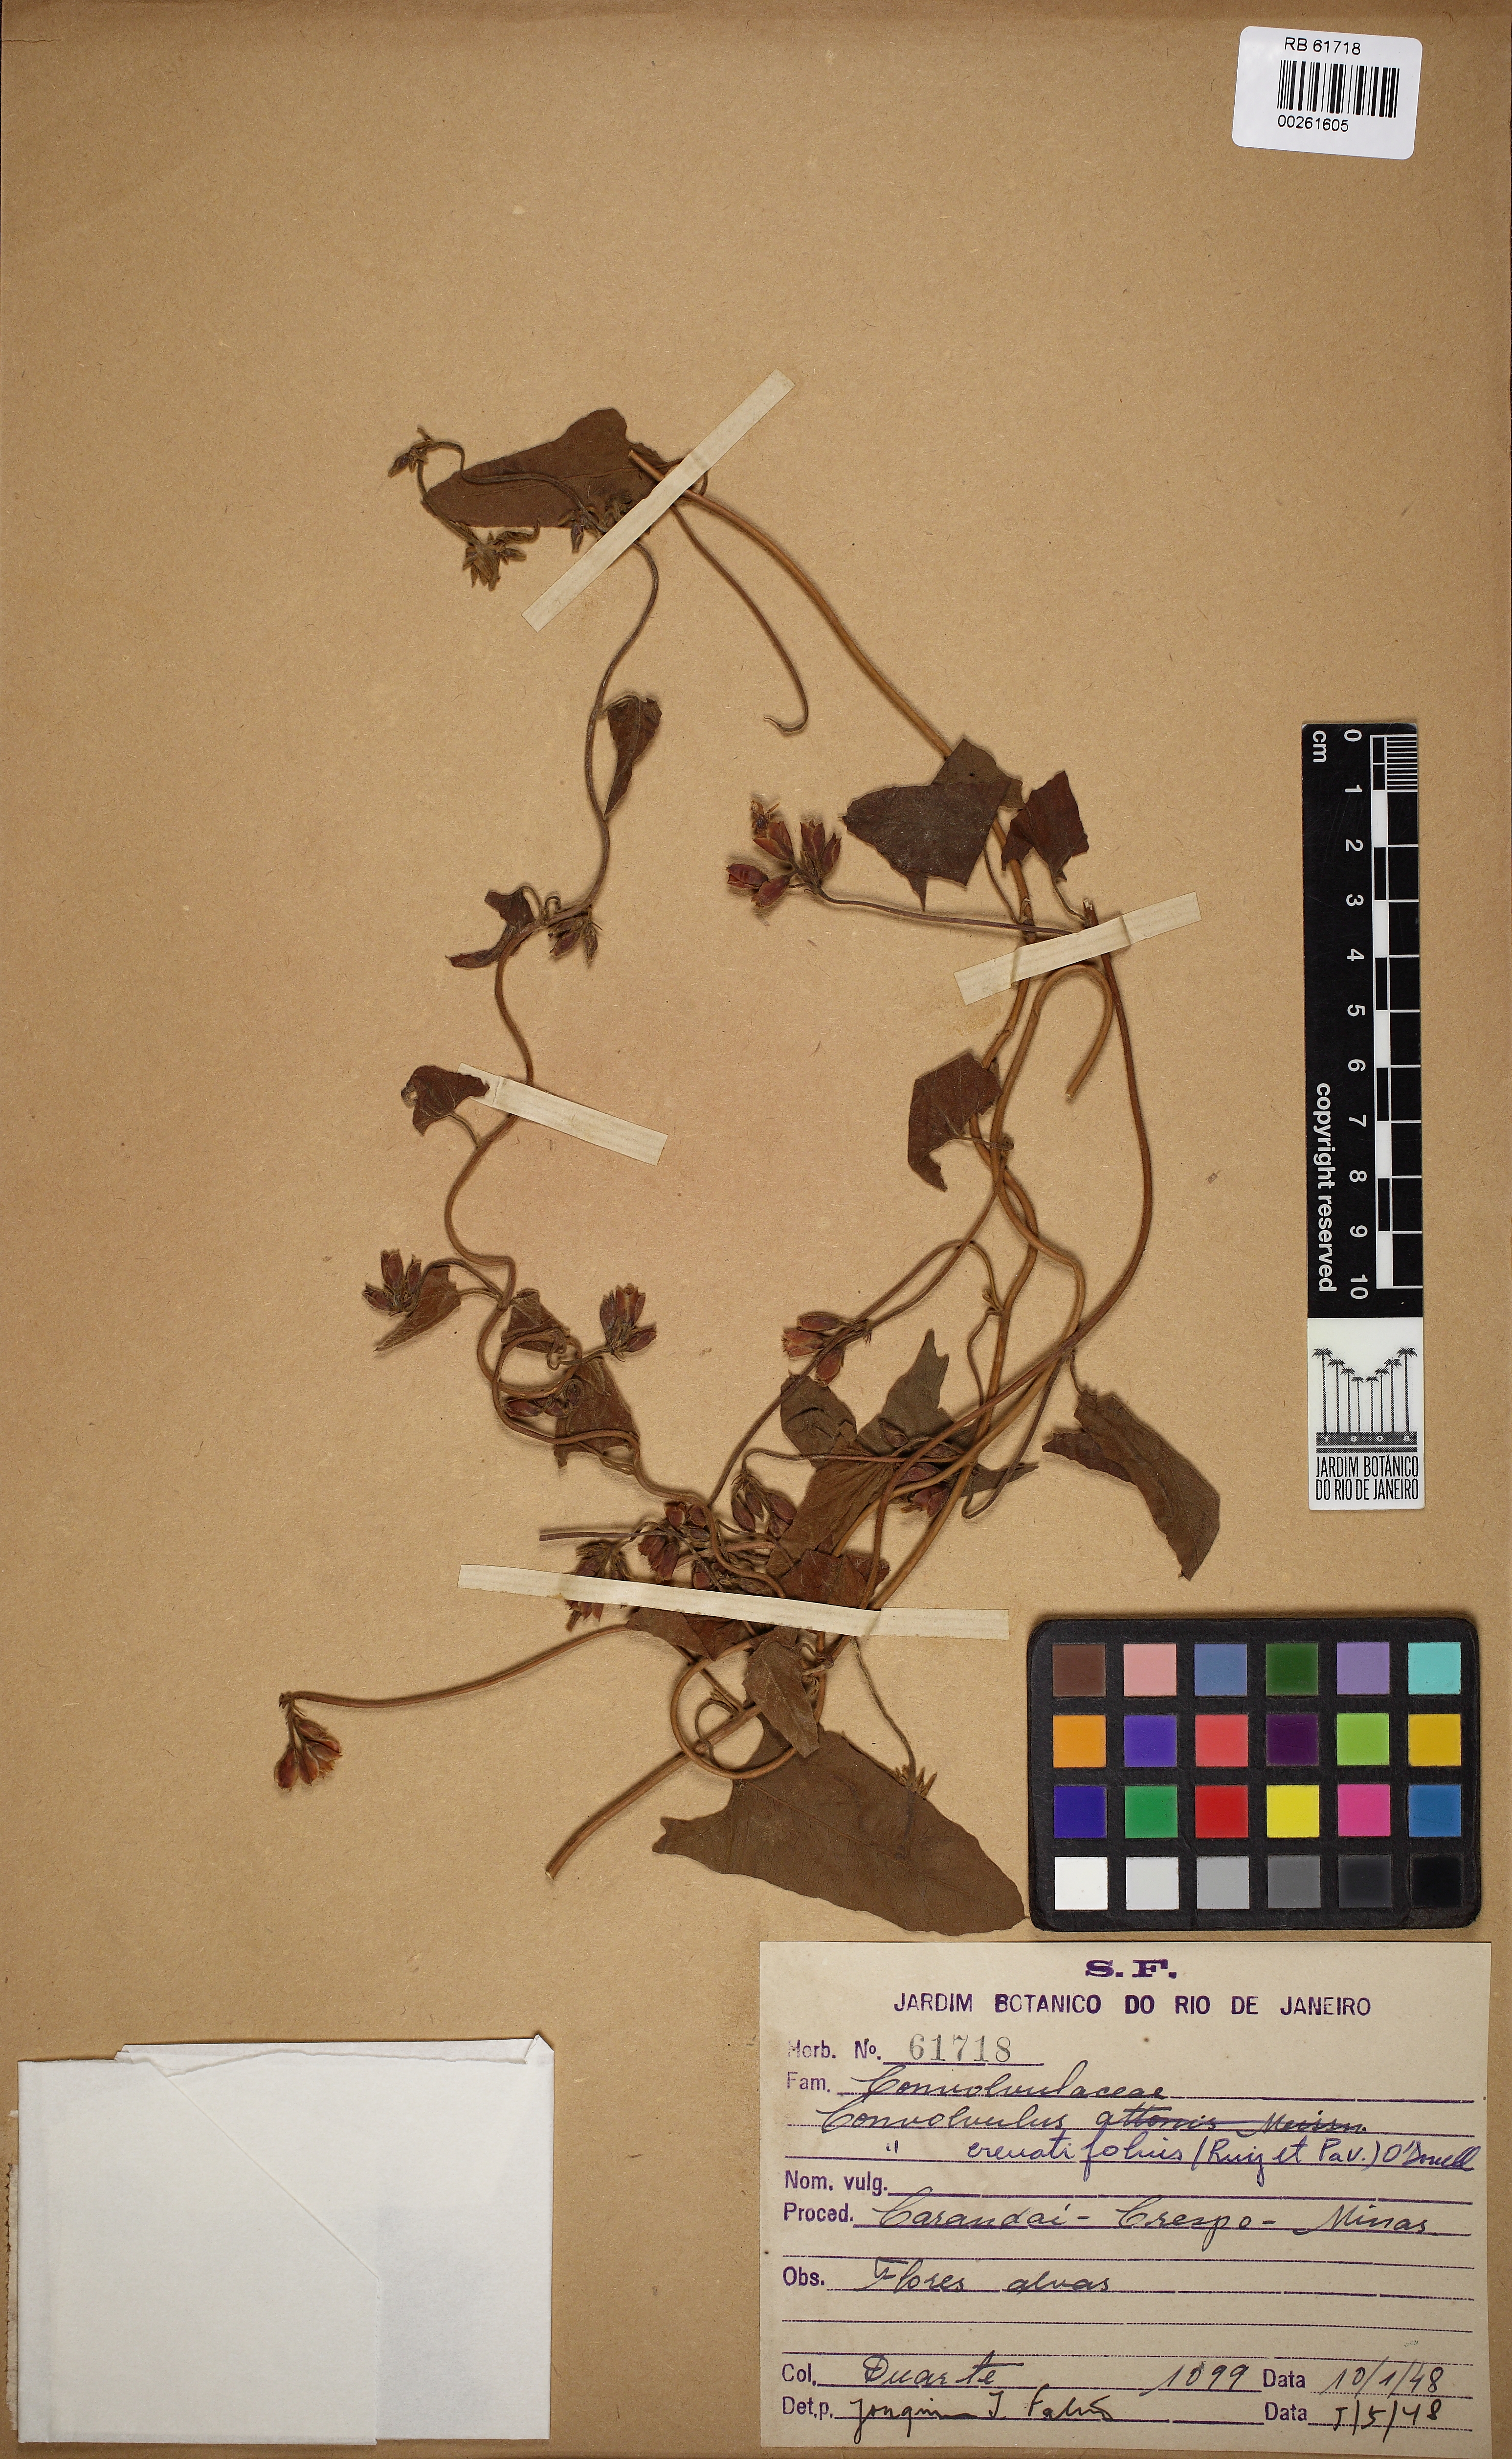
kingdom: Plantae
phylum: Tracheophyta
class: Magnoliopsida
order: Solanales
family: Convolvulaceae
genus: Convolvulus
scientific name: Convolvulus crenatifolius
